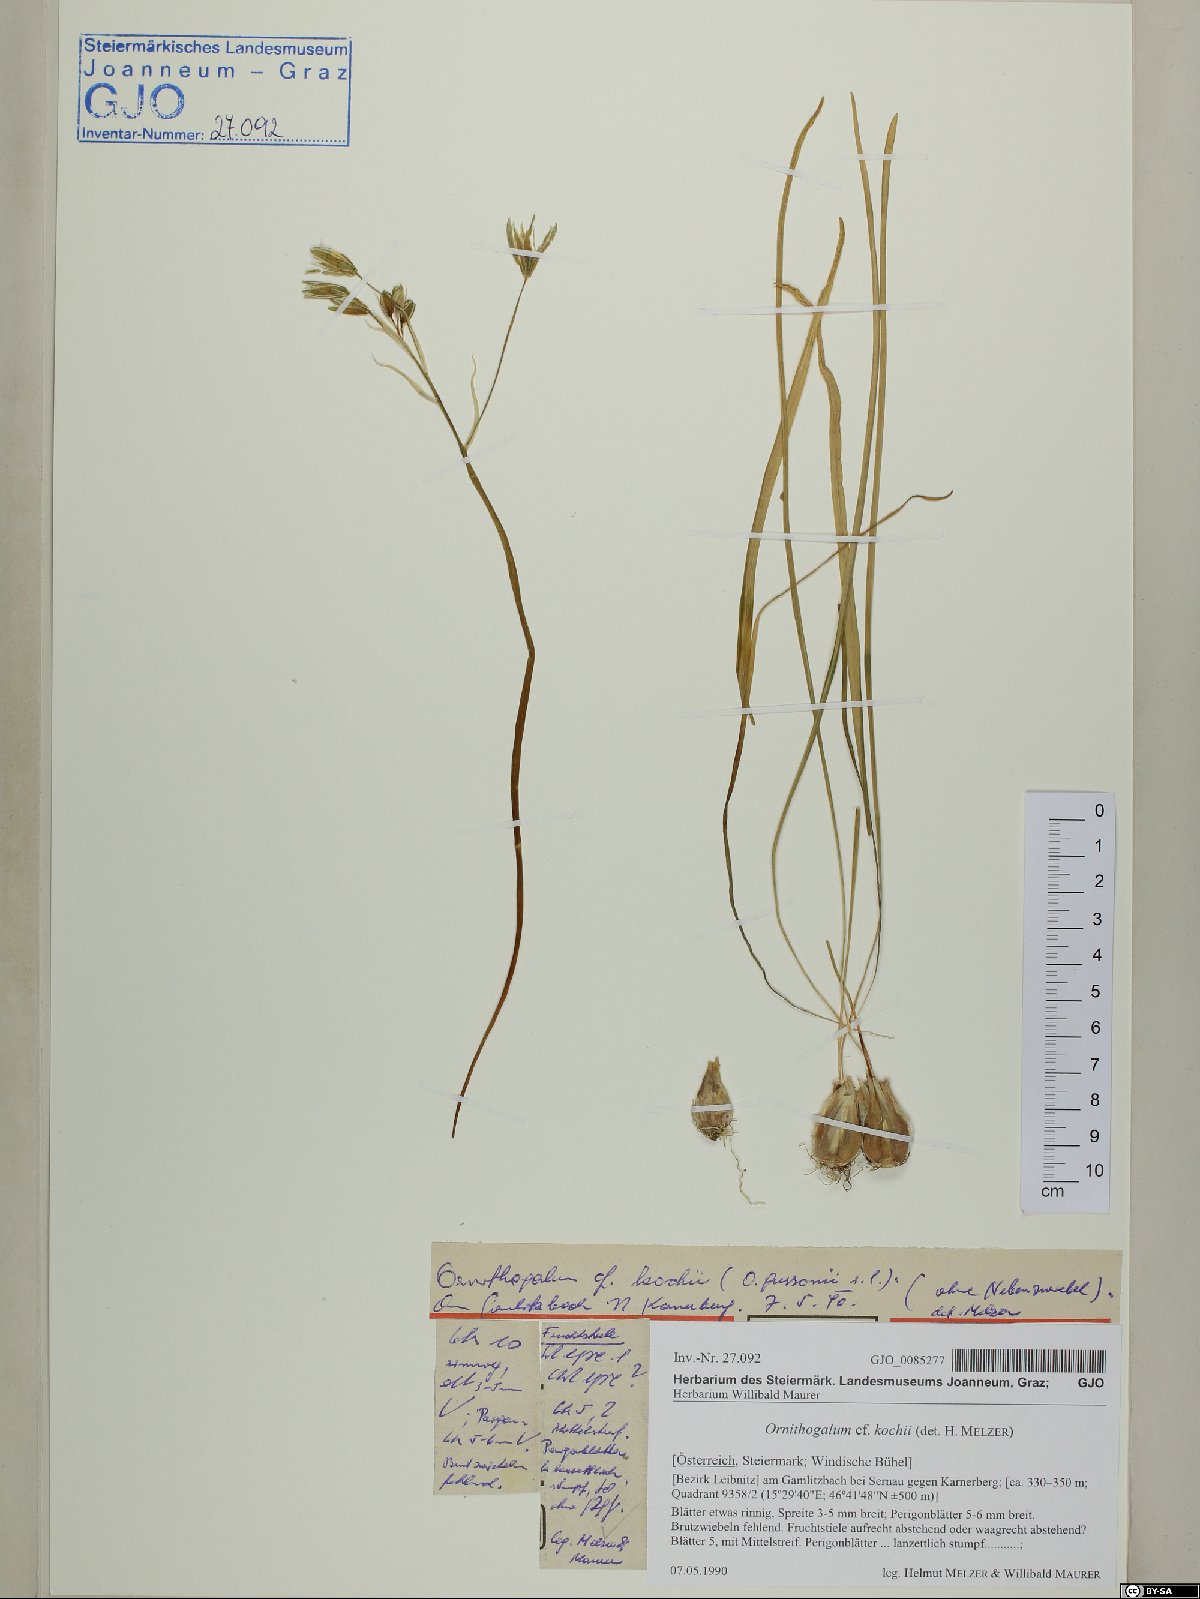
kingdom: Plantae
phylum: Tracheophyta
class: Liliopsida
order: Asparagales
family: Asparagaceae
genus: Ornithogalum
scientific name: Ornithogalum orthophyllum
